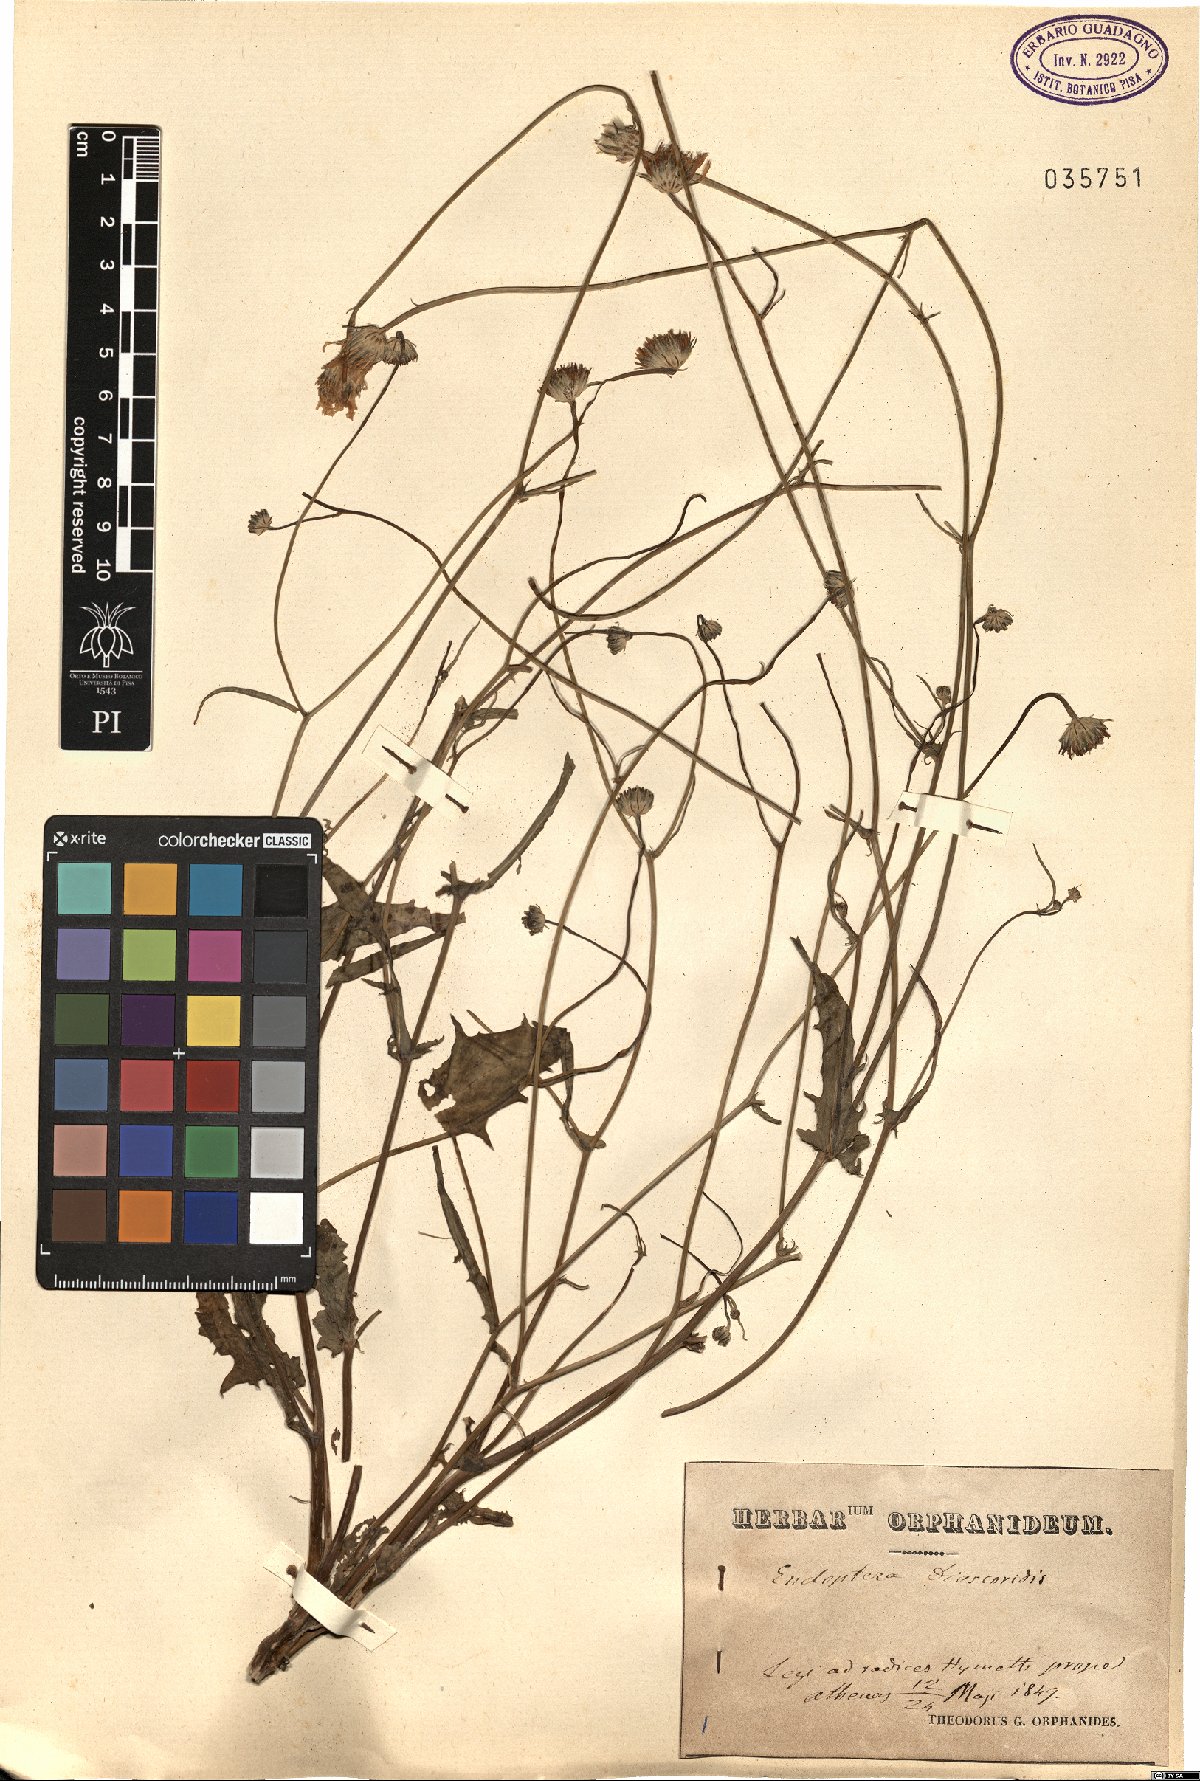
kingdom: Plantae
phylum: Tracheophyta
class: Magnoliopsida
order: Asterales
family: Asteraceae
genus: Crepis
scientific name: Crepis dioscoridis
